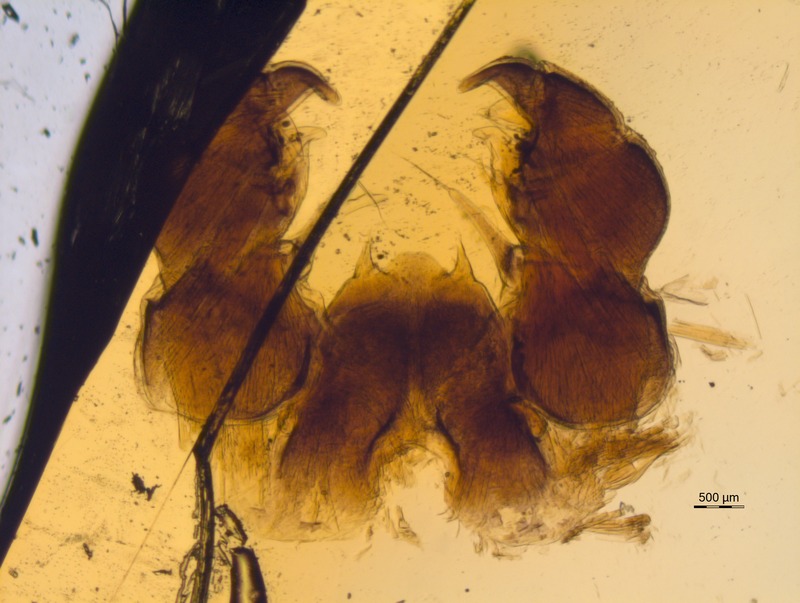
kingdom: Animalia
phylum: Arthropoda
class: Diplopoda
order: Glomerida
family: Glomeridae
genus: Glomeris
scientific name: Glomeris hexasticha
